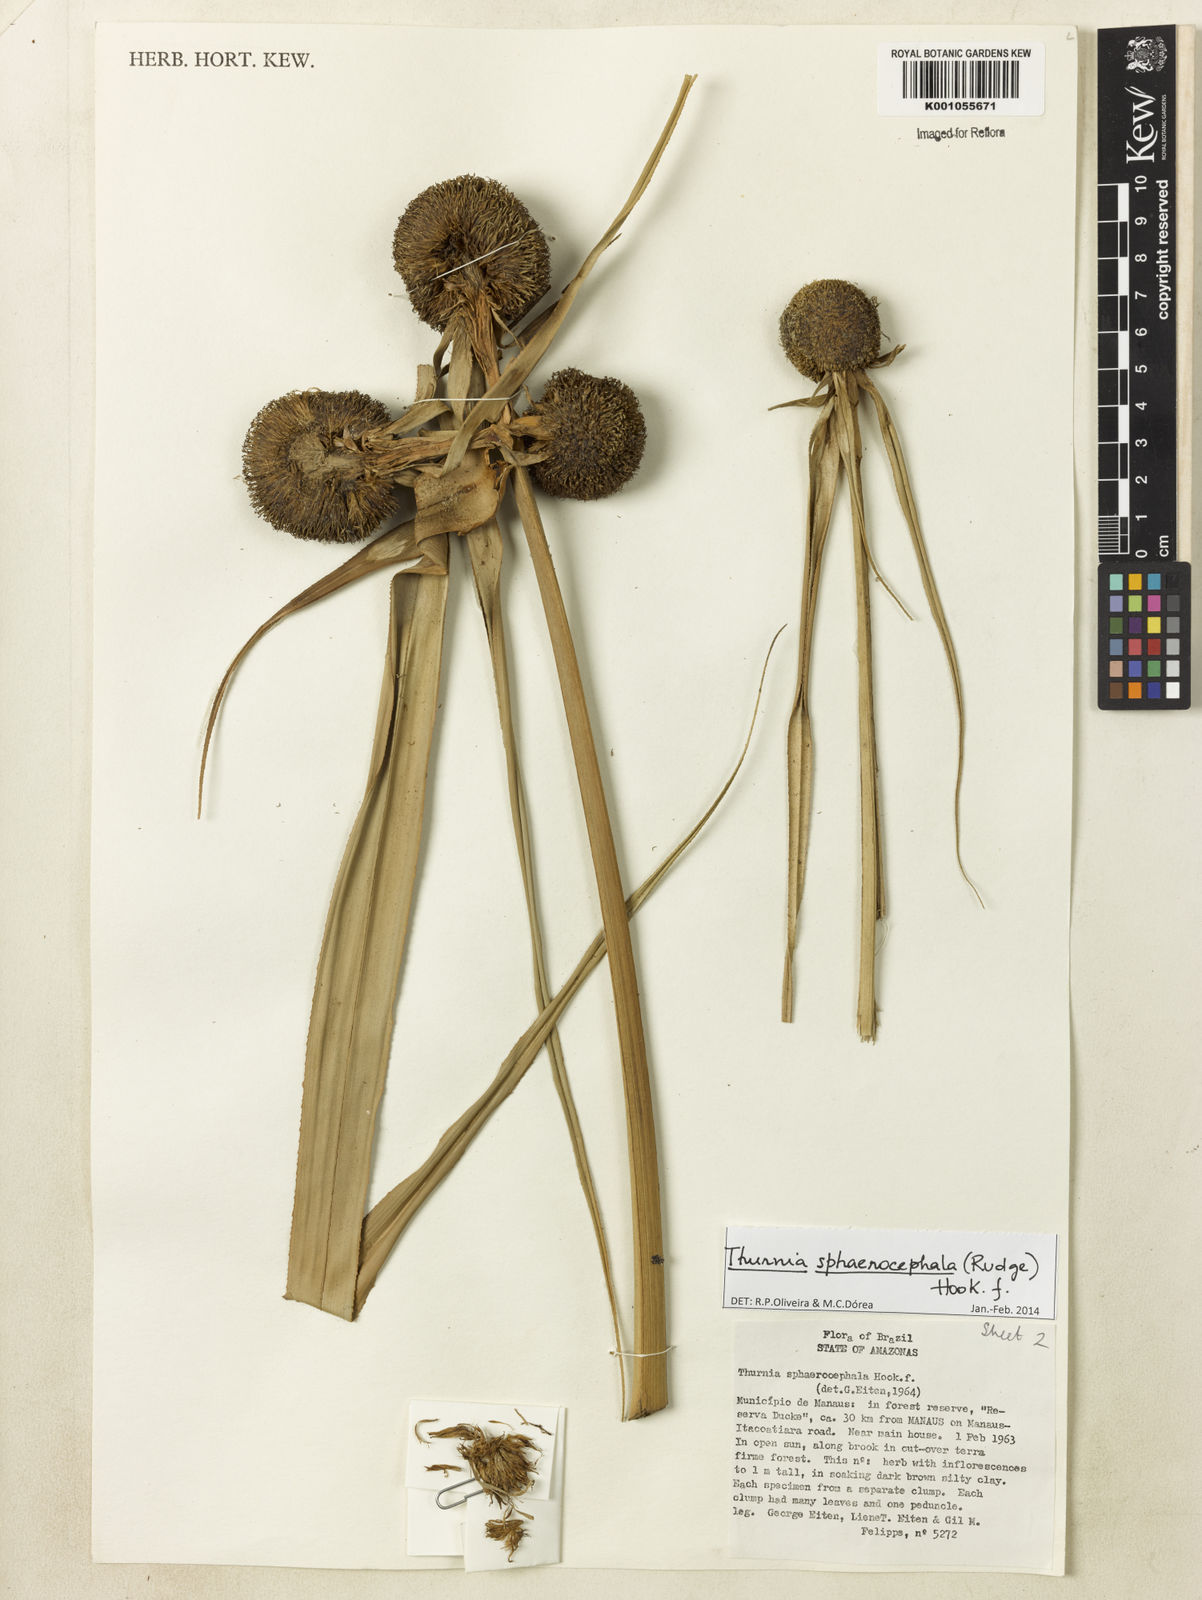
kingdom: Plantae
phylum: Tracheophyta
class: Liliopsida
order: Poales
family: Thurniaceae
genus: Thurnia
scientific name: Thurnia sphaerocephala
